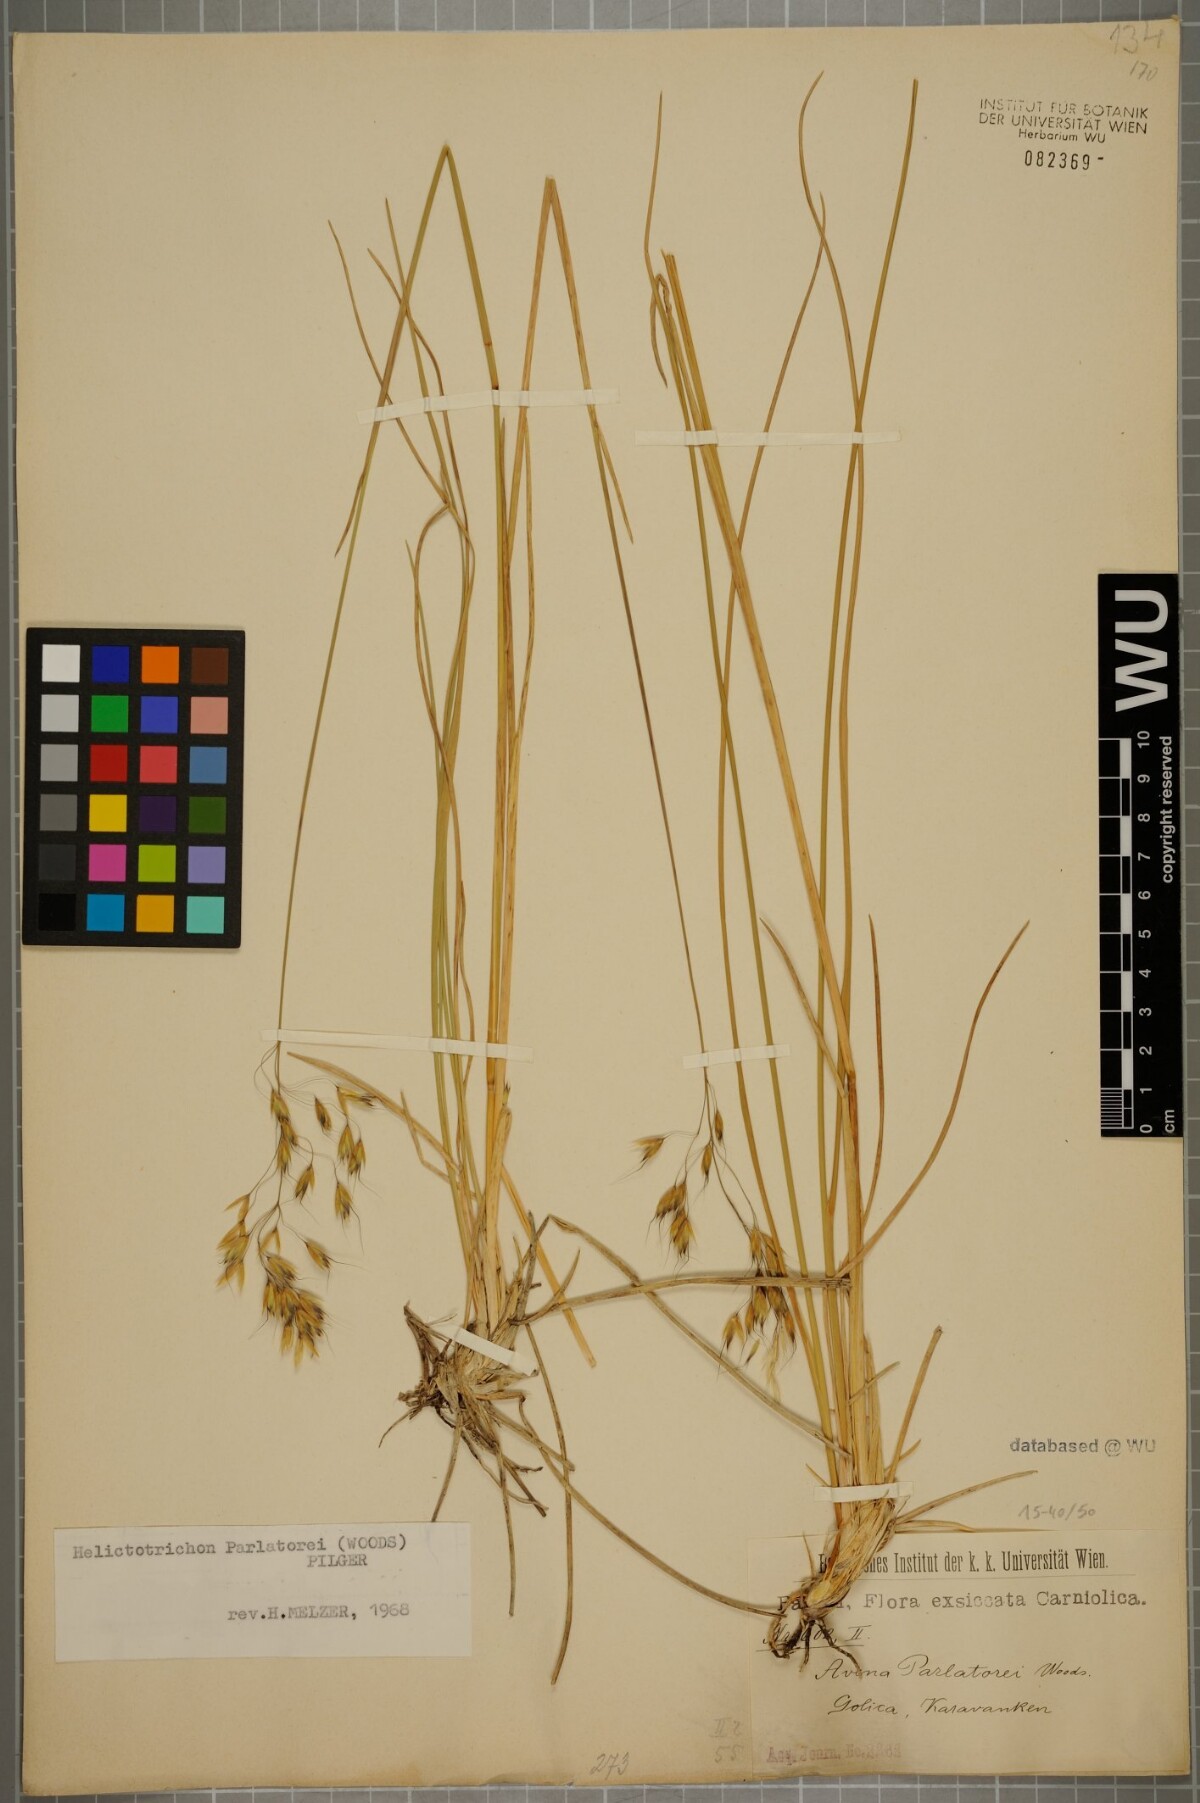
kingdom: Plantae
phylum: Tracheophyta
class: Liliopsida
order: Poales
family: Poaceae
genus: Helictotrichon
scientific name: Helictotrichon parlatorei
